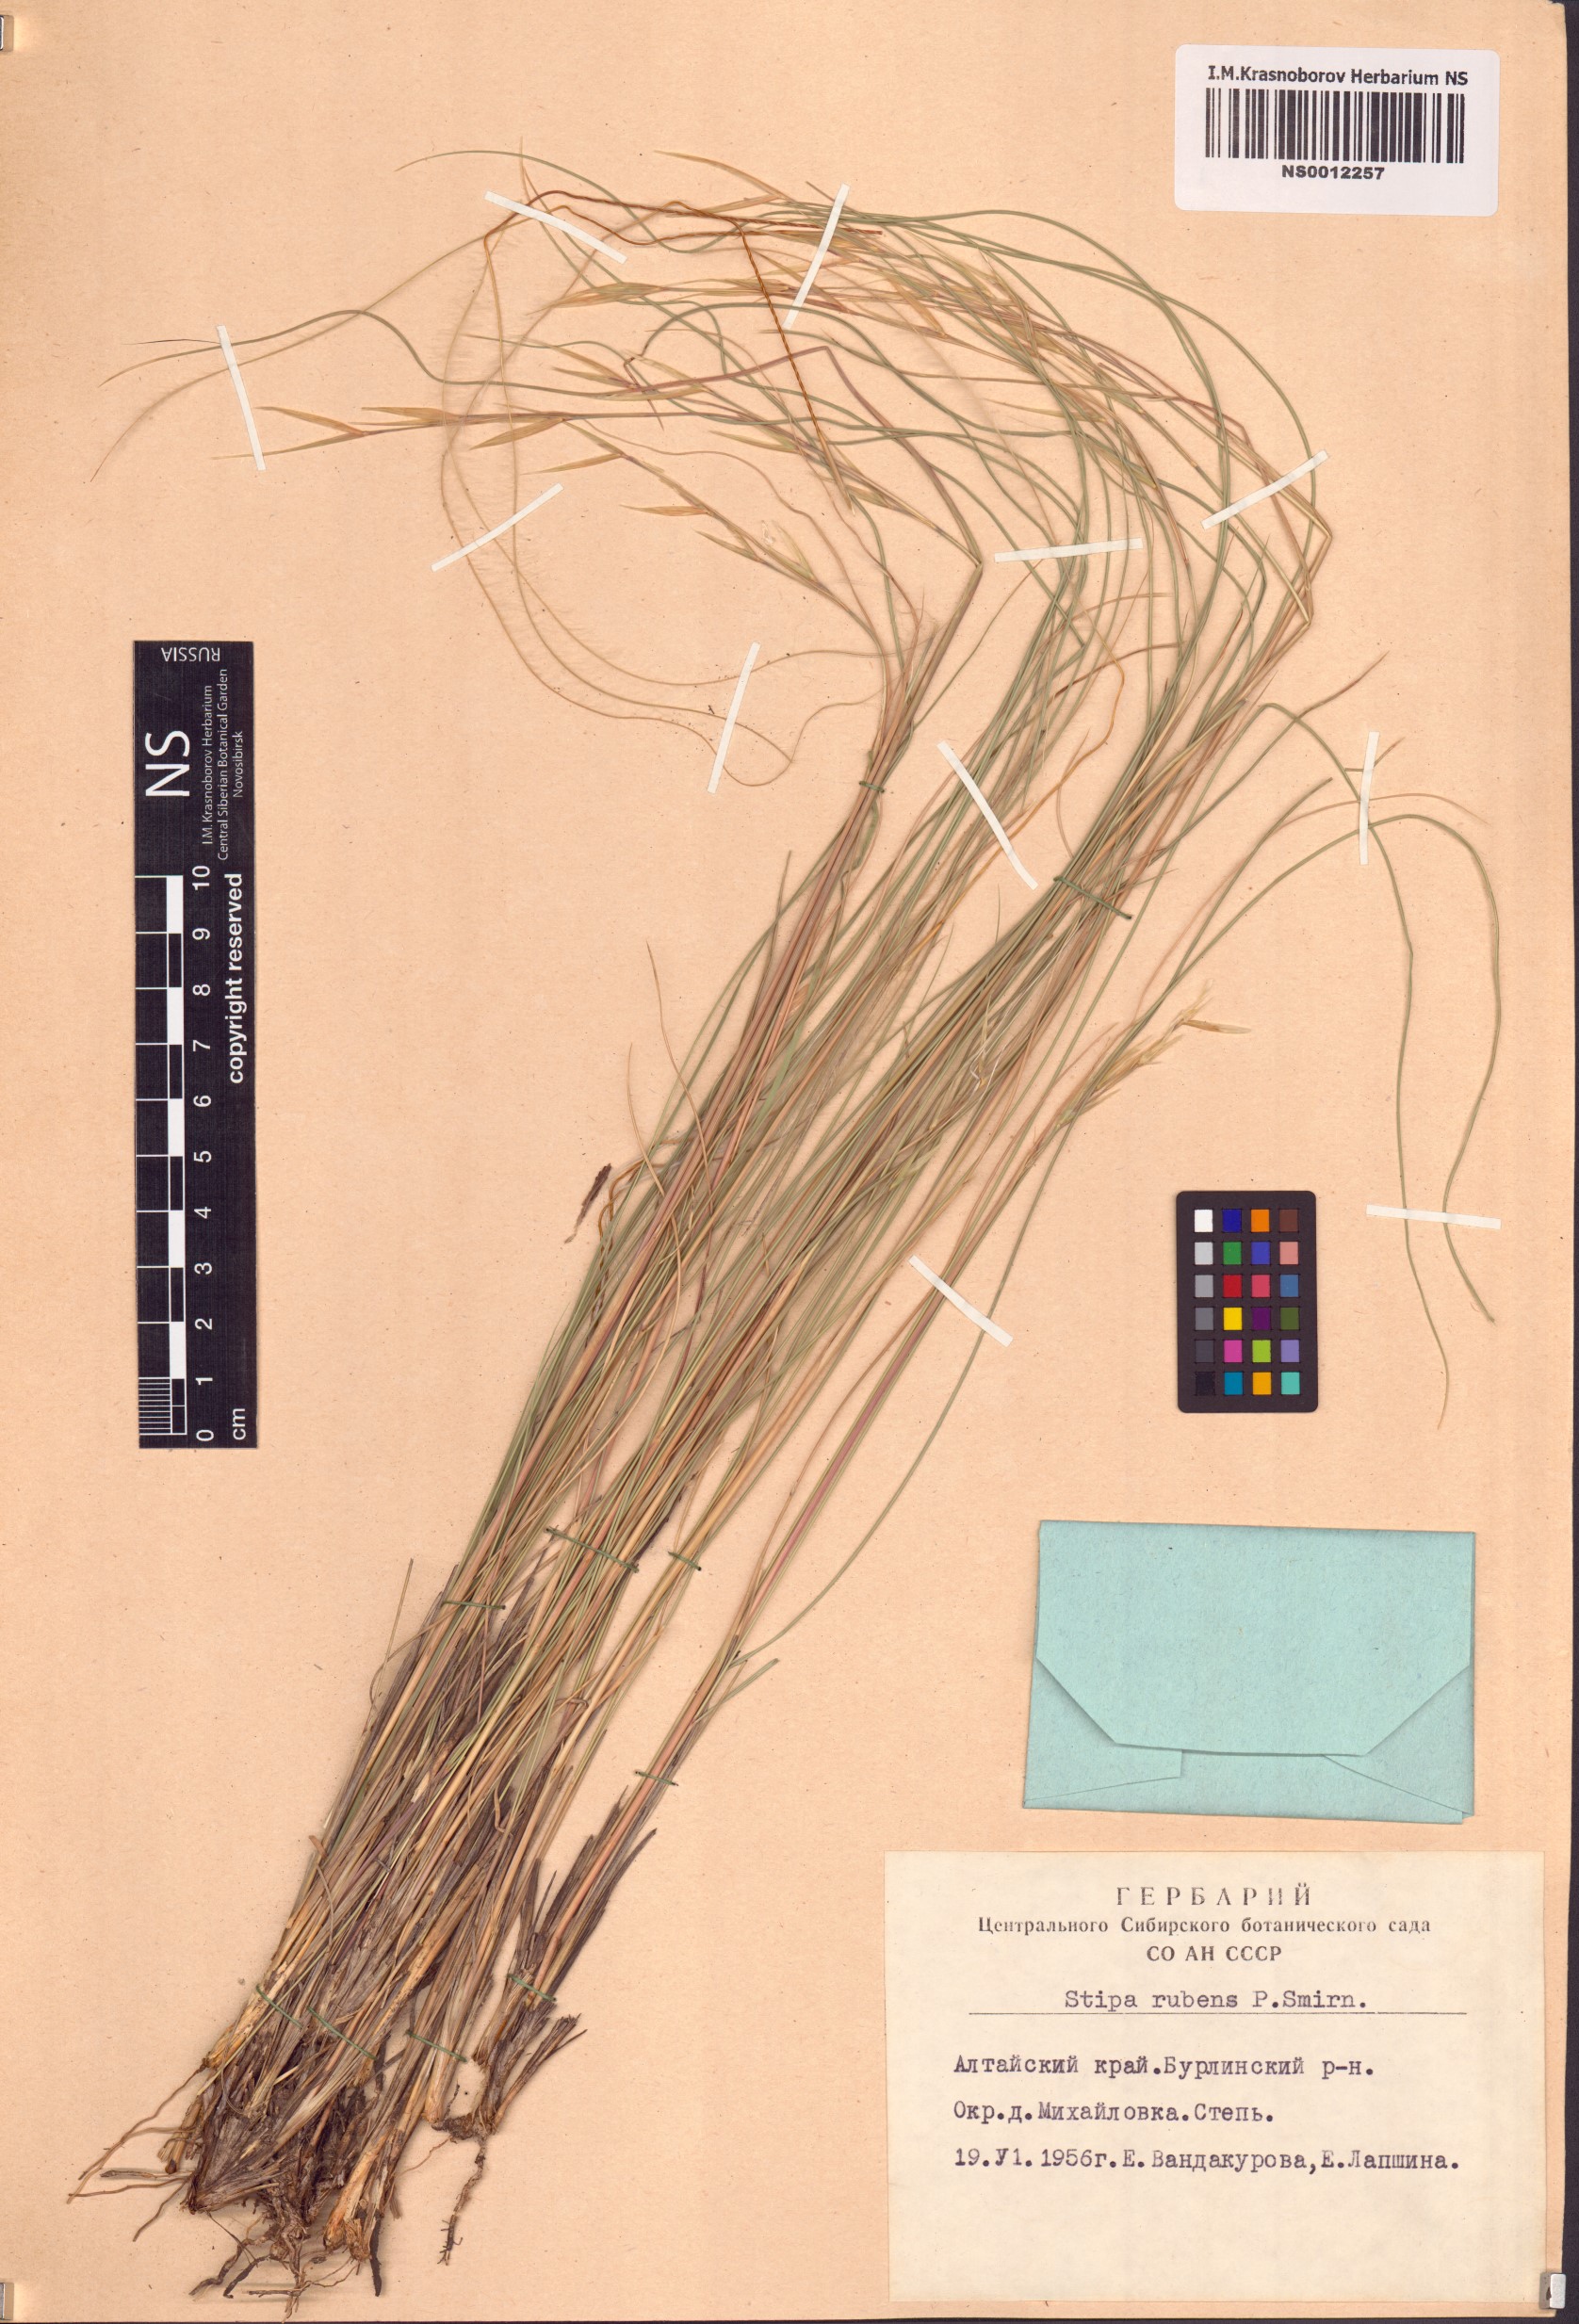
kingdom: Plantae
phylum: Tracheophyta
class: Liliopsida
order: Poales
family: Poaceae
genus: Stipa
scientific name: Stipa zalesskyi
